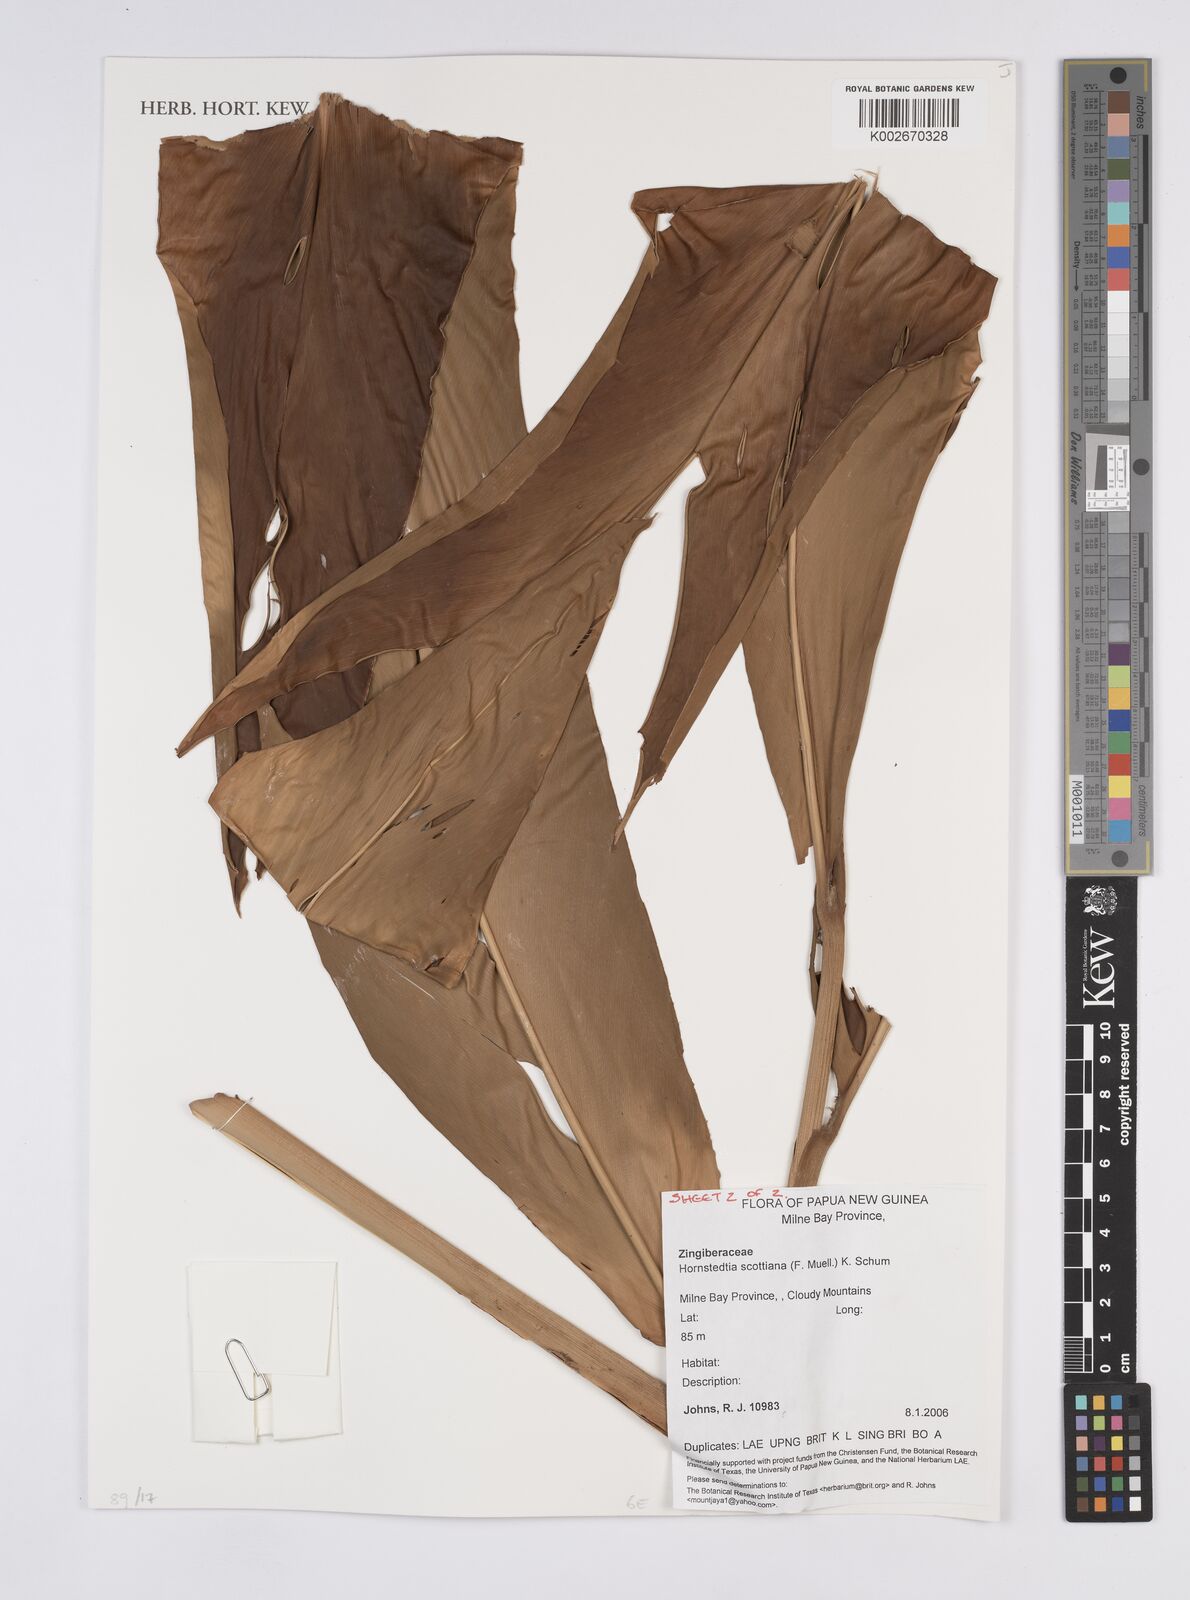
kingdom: Plantae
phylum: Tracheophyta
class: Liliopsida
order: Zingiberales
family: Zingiberaceae
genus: Hornstedtia
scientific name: Hornstedtia scottiana
